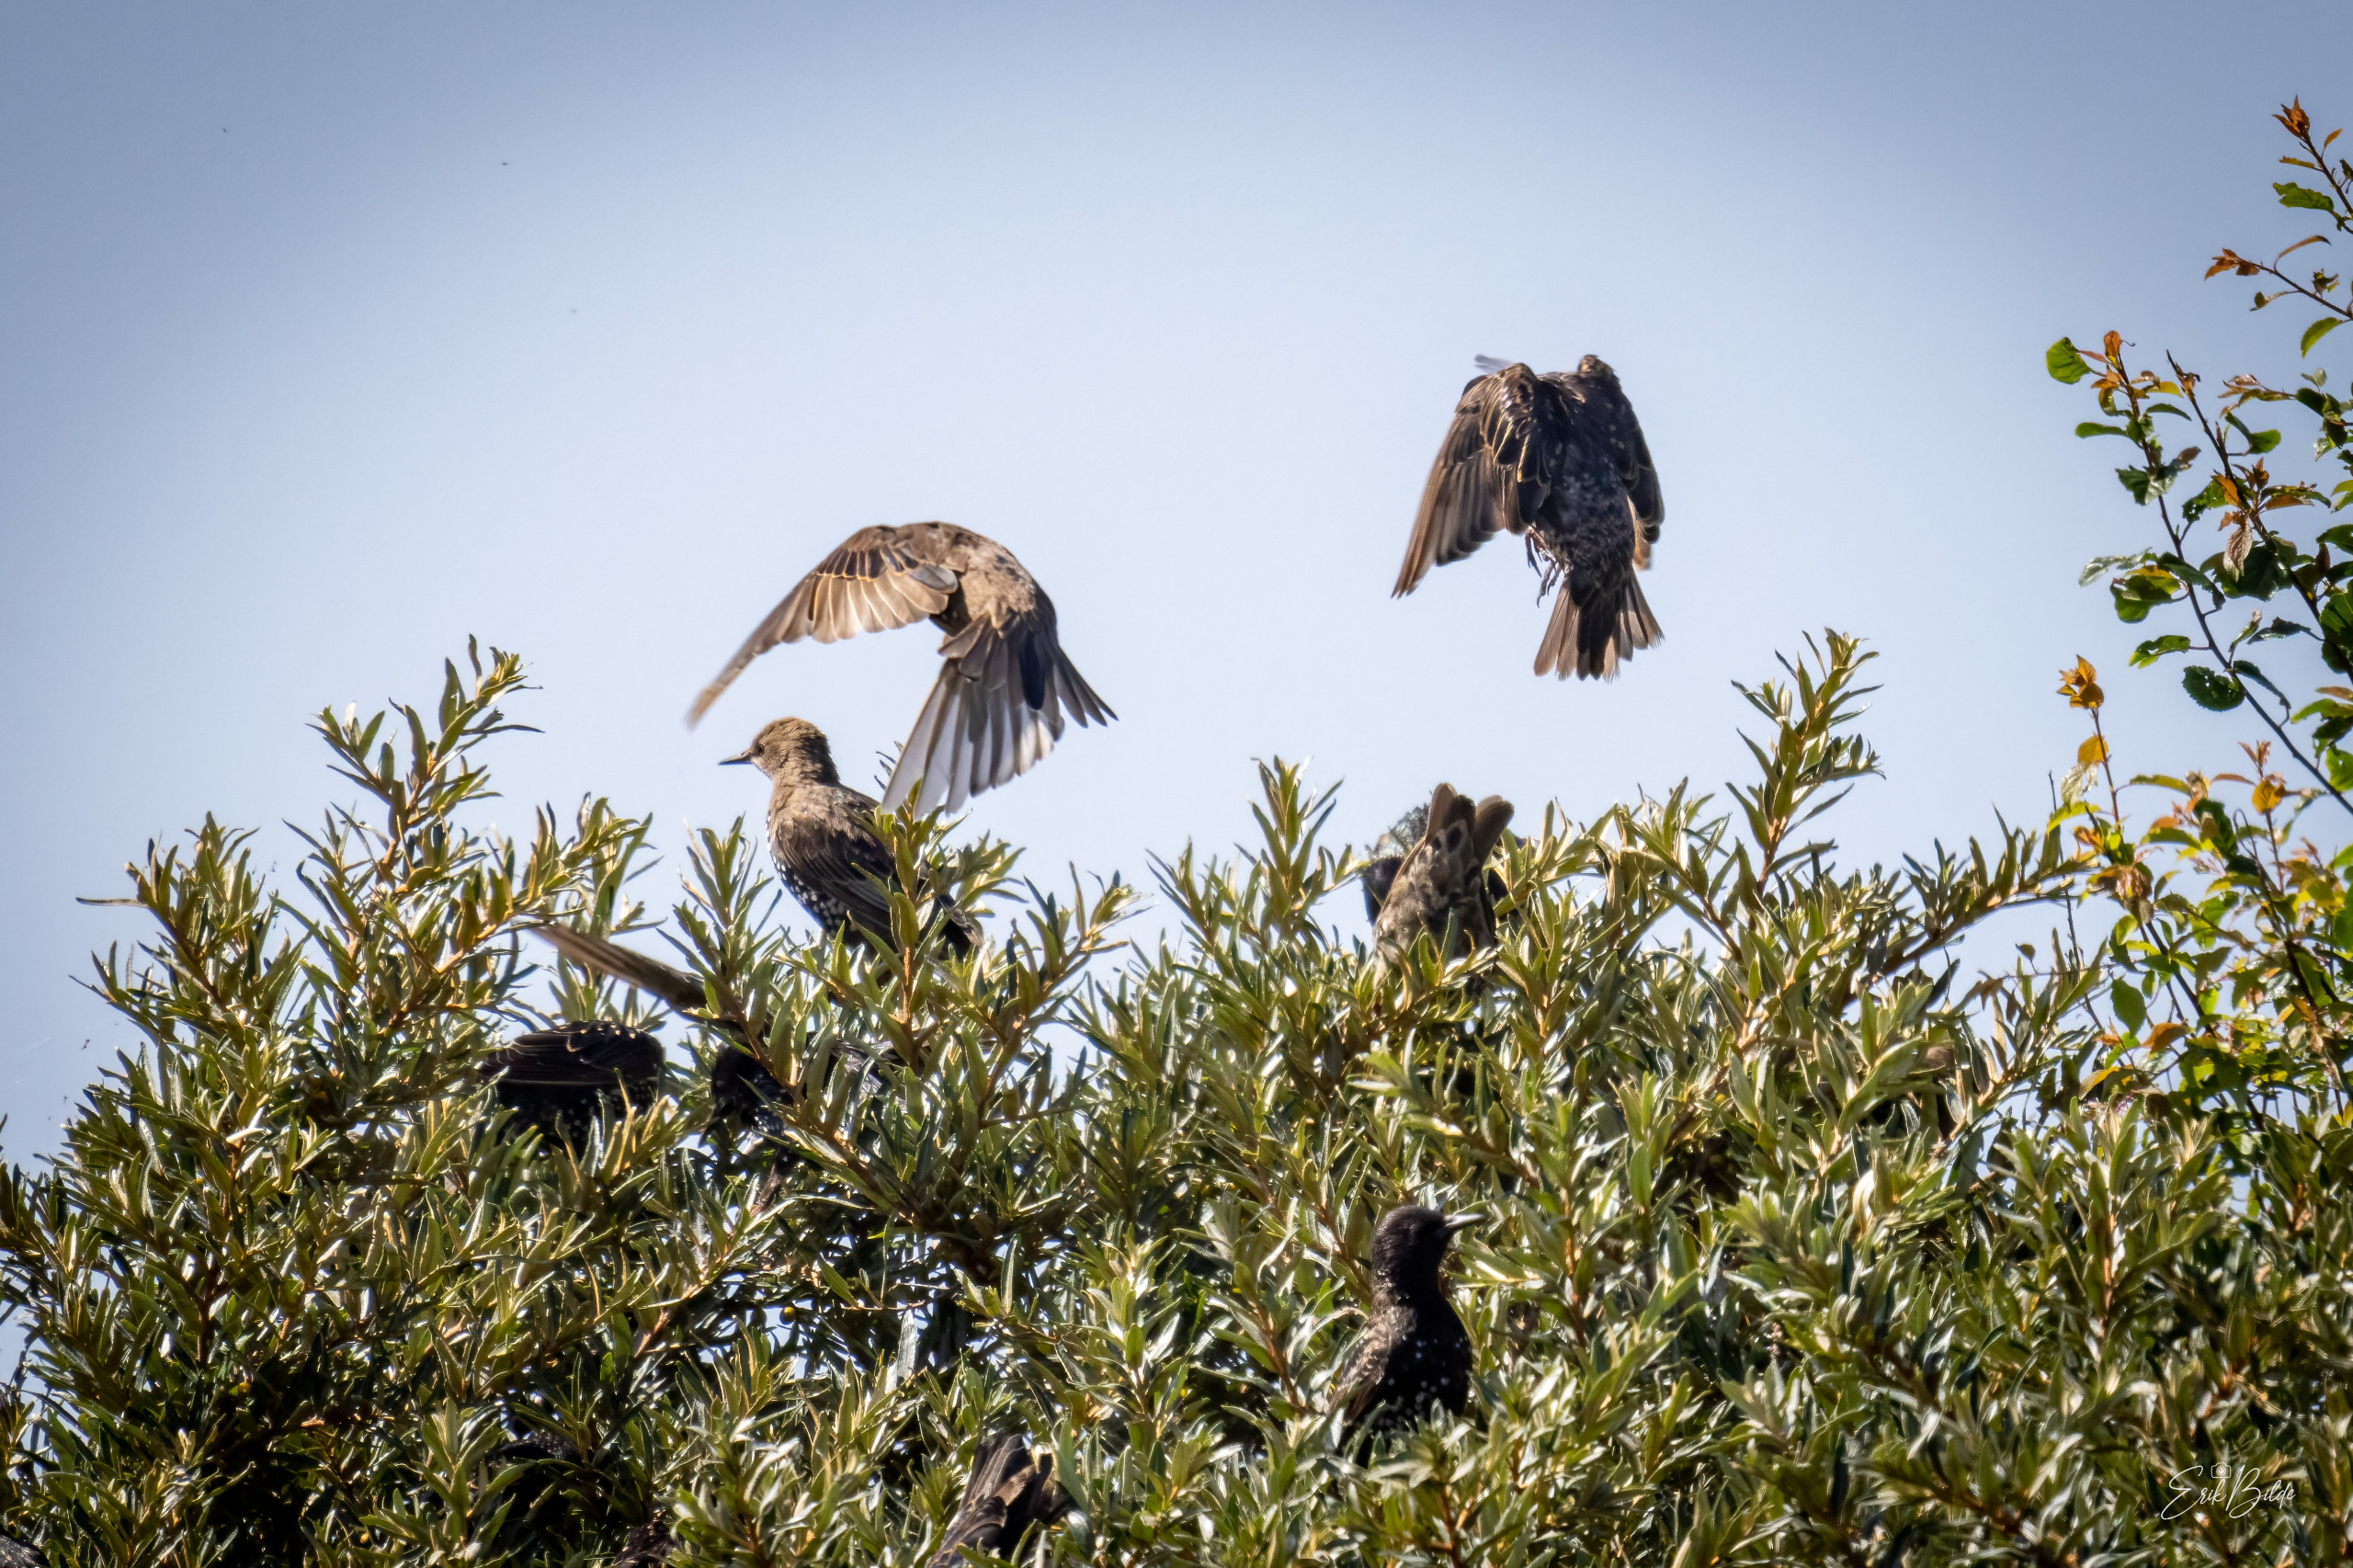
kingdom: Animalia
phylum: Chordata
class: Aves
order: Passeriformes
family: Sturnidae
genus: Sturnus
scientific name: Sturnus vulgaris
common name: Stær
